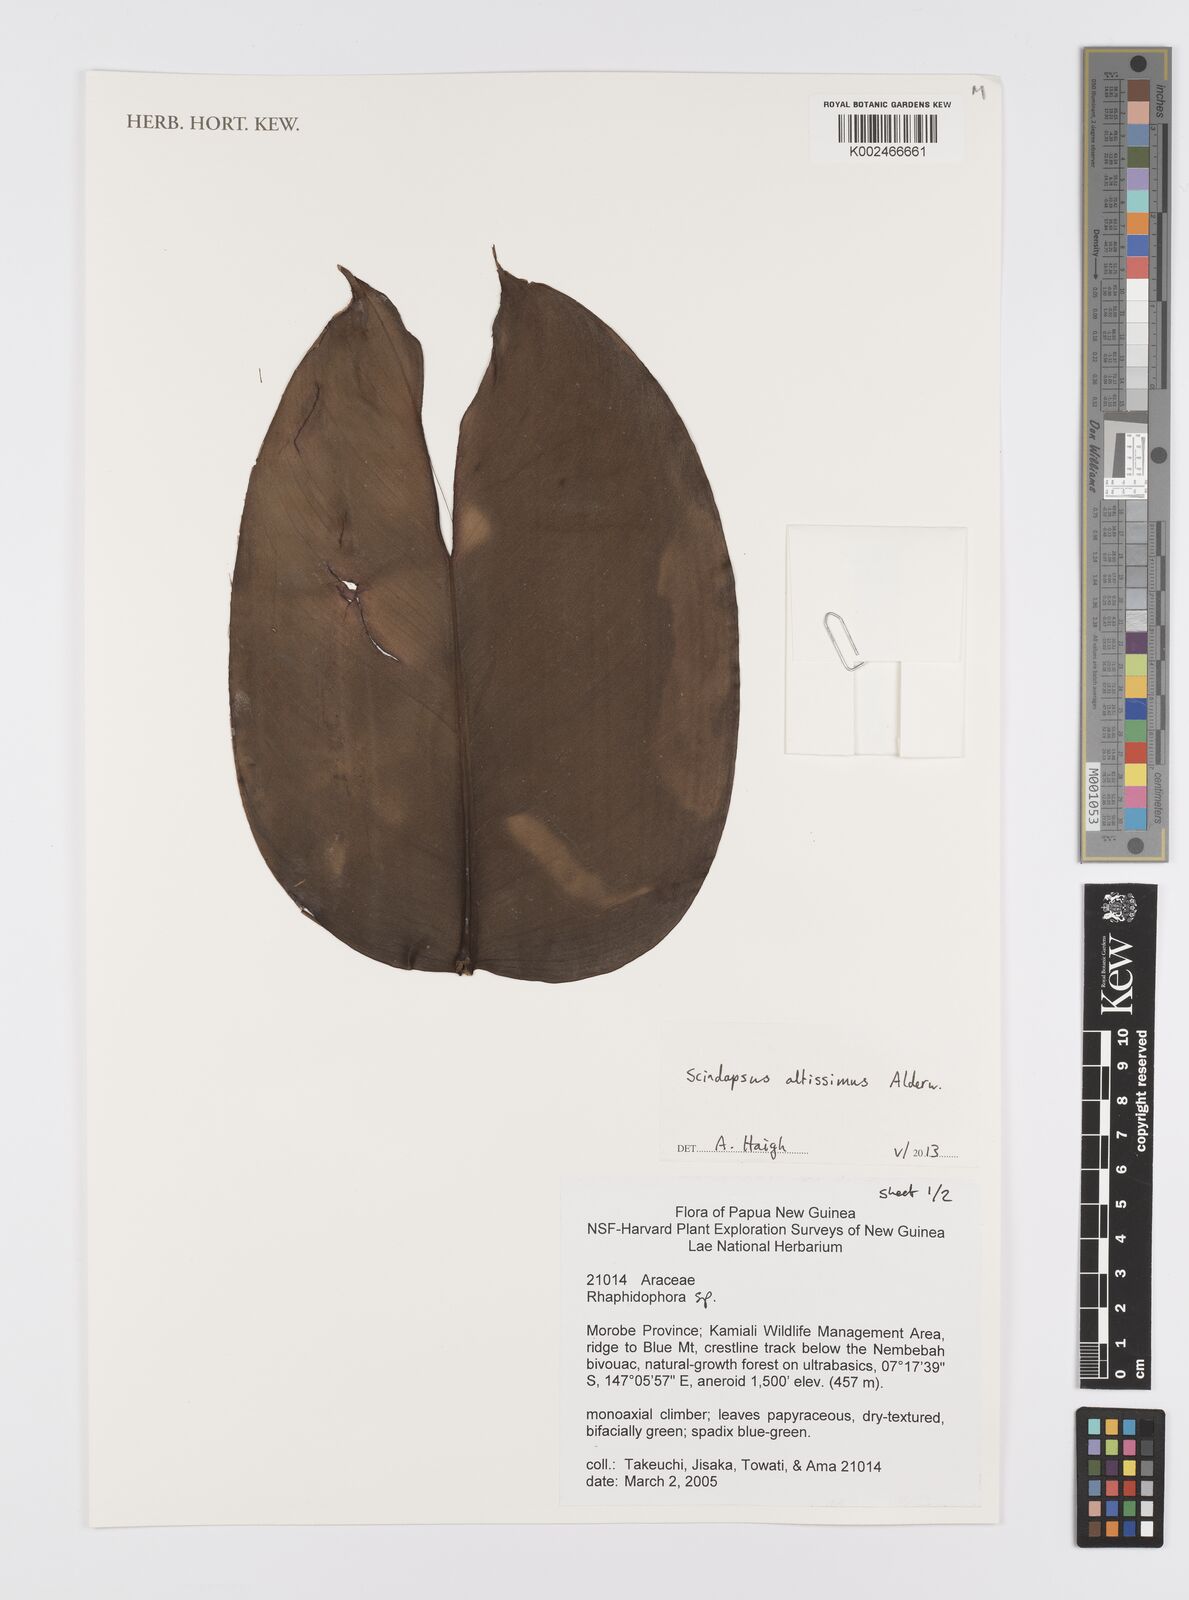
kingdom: Plantae
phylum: Tracheophyta
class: Liliopsida
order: Alismatales
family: Araceae
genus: Scindapsus
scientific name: Scindapsus altissimus
